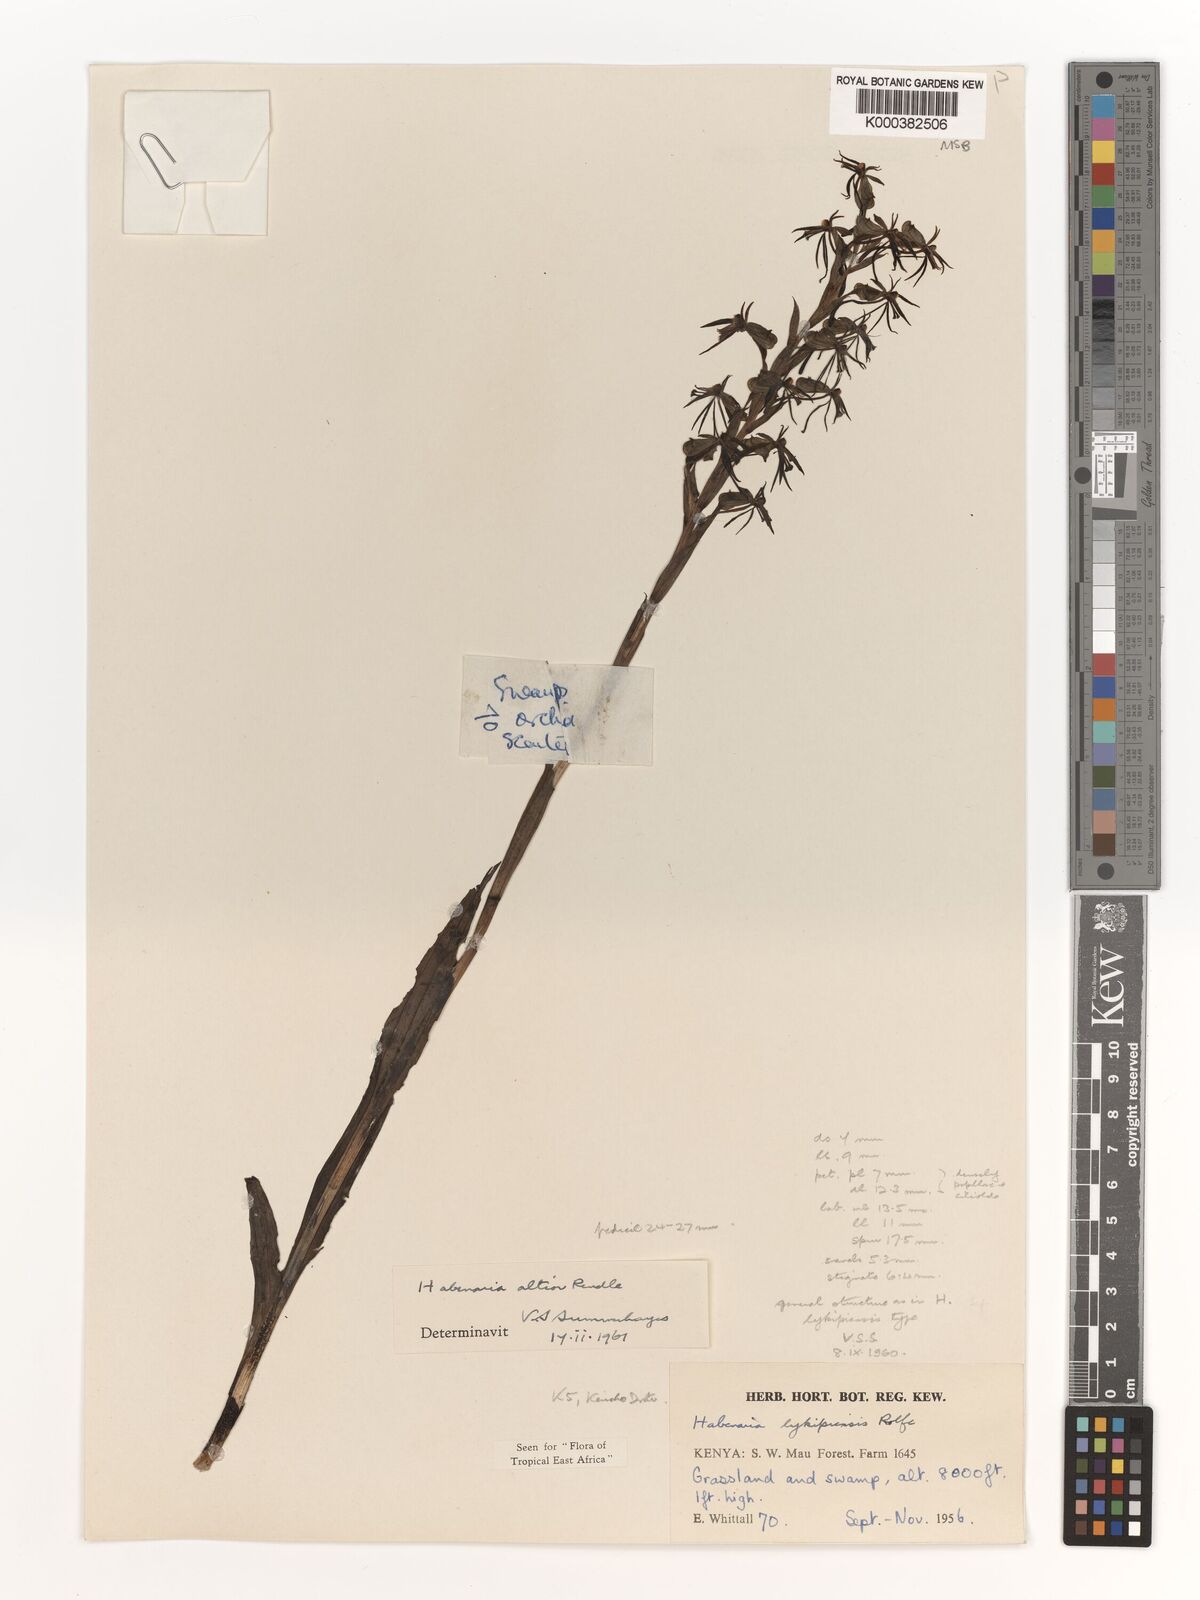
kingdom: Plantae
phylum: Tracheophyta
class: Liliopsida
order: Asparagales
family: Orchidaceae
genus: Habenaria
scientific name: Habenaria altior
